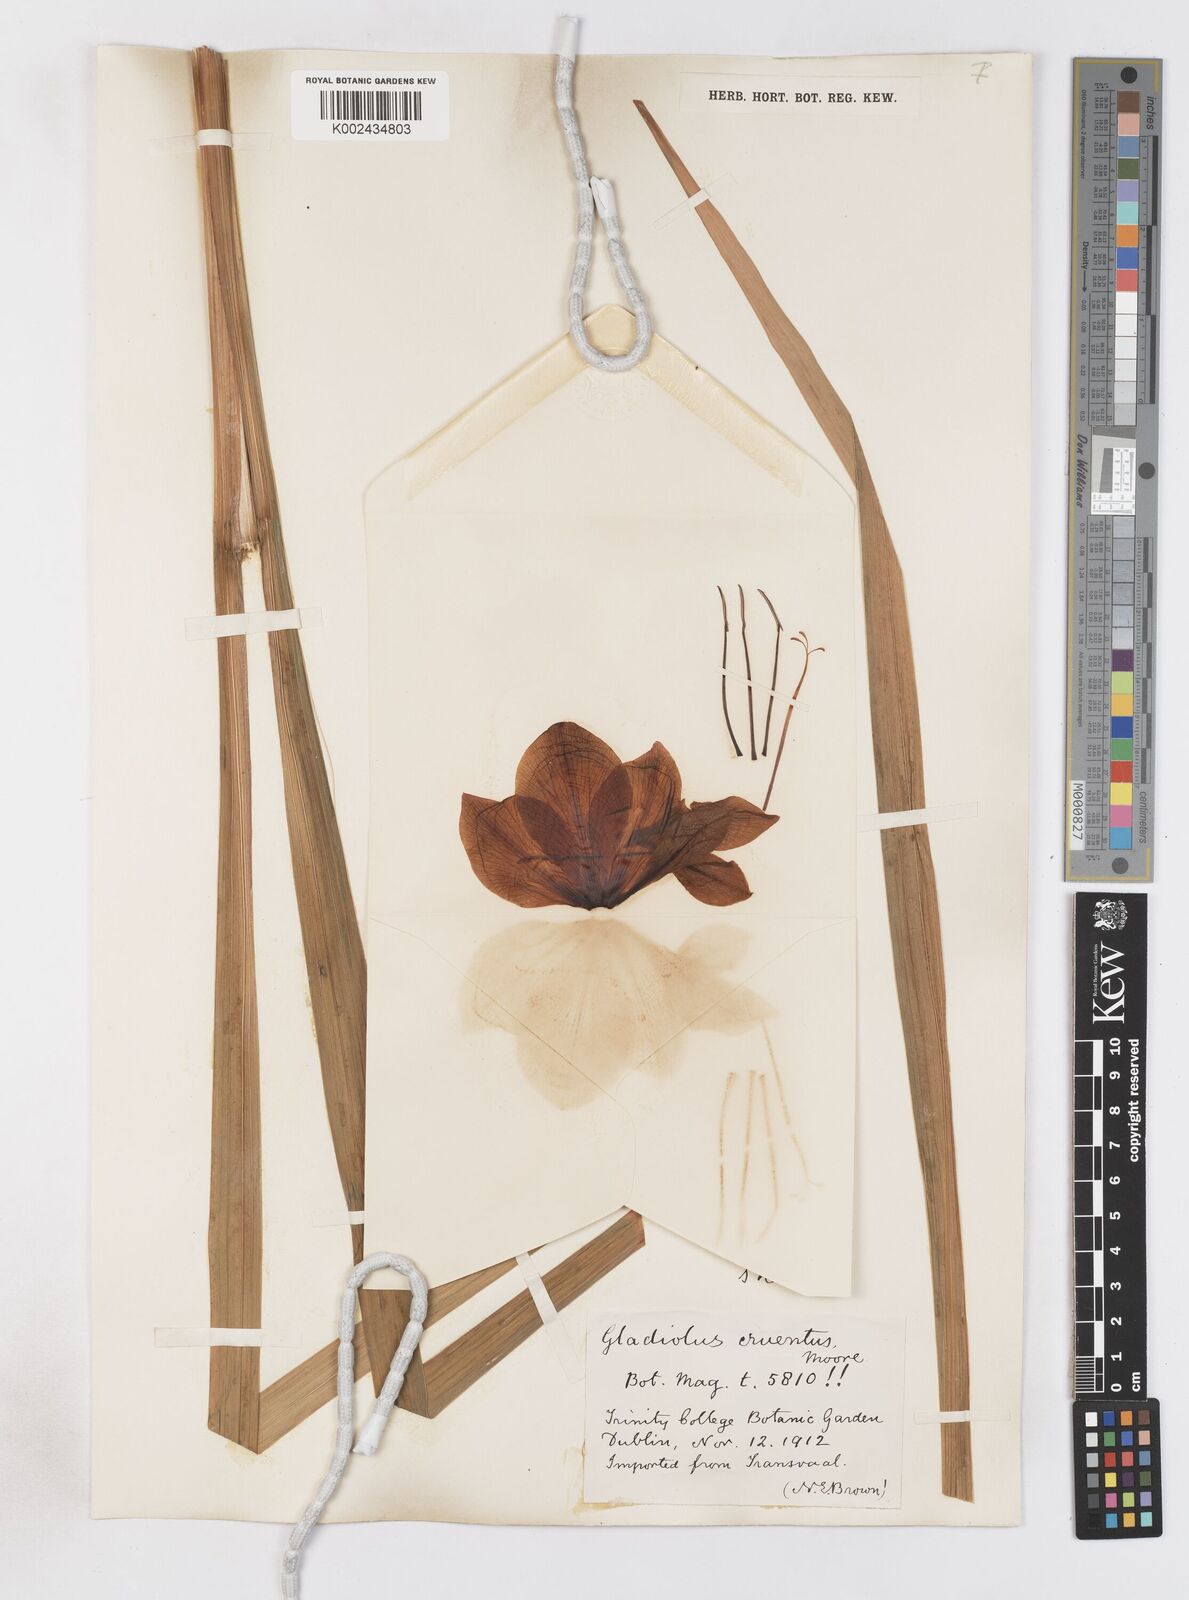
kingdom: Plantae
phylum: Tracheophyta
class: Liliopsida
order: Asparagales
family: Iridaceae
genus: Gladiolus
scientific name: Gladiolus cardinalis
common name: New year-lily
